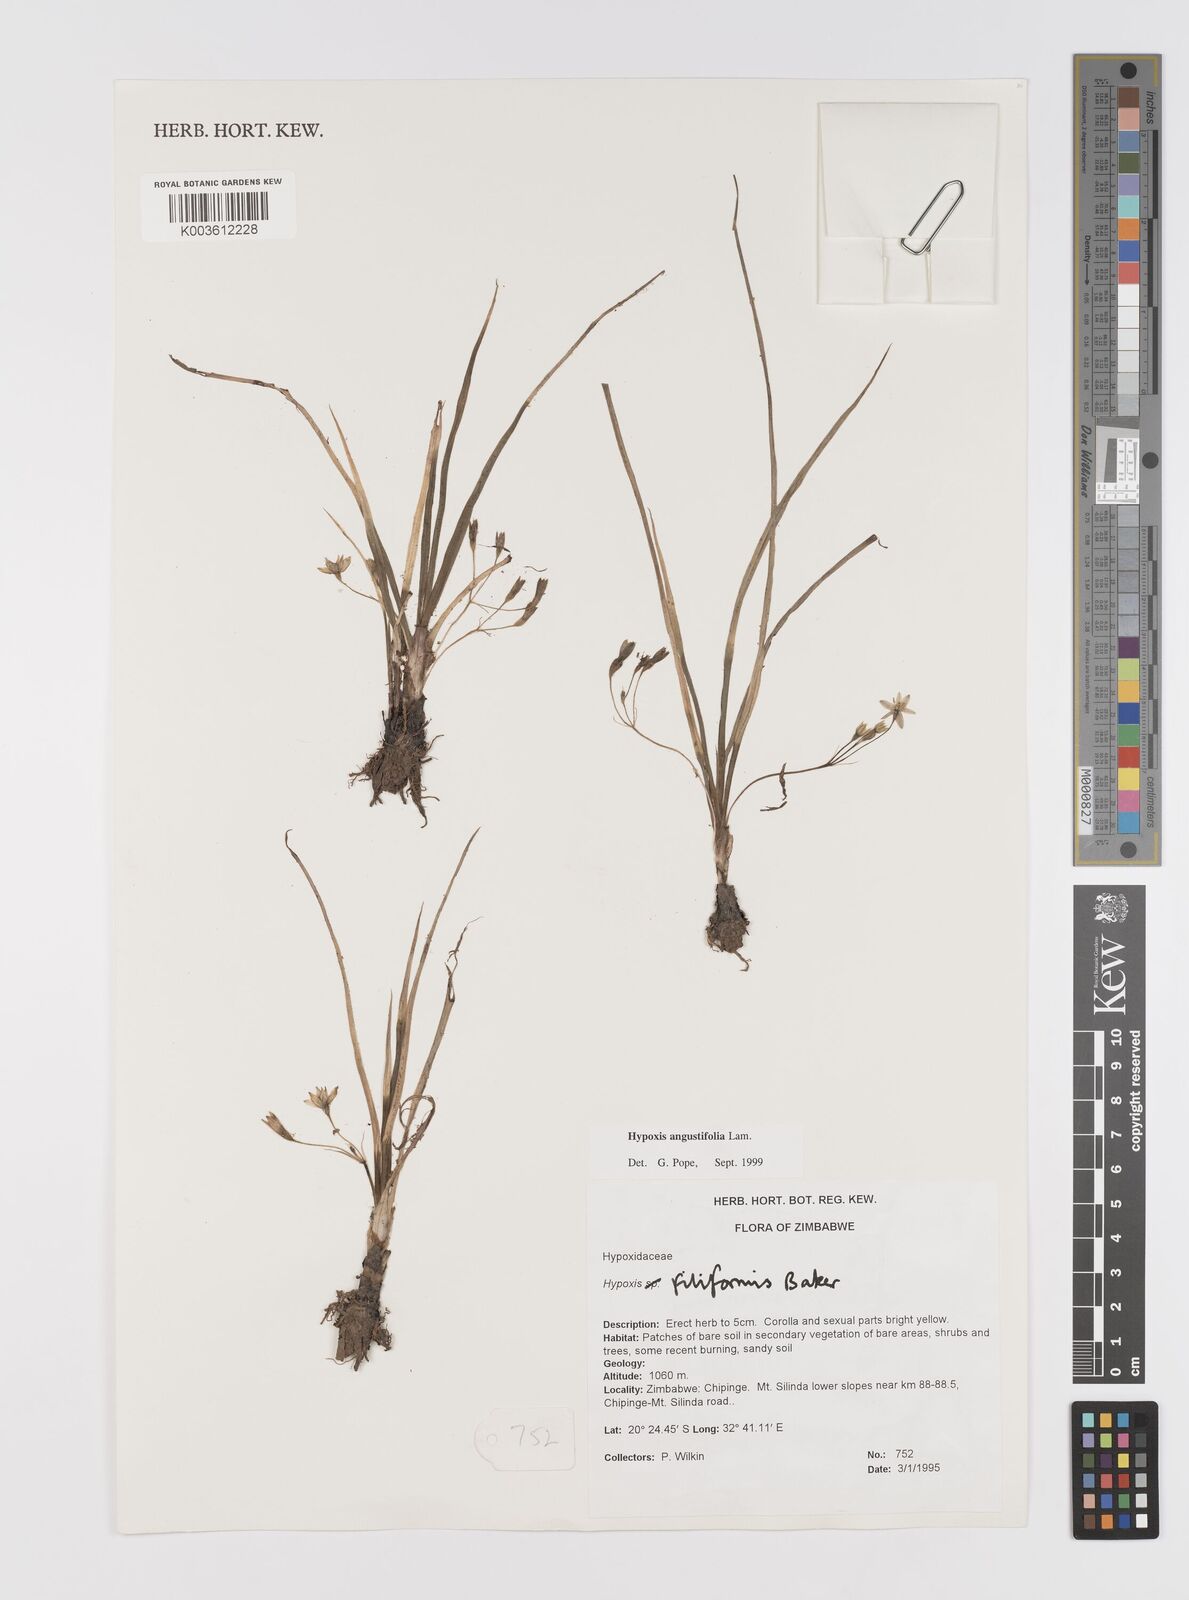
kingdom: Plantae
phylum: Tracheophyta
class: Liliopsida
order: Asparagales
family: Hypoxidaceae
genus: Hypoxis
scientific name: Hypoxis angustifolia
